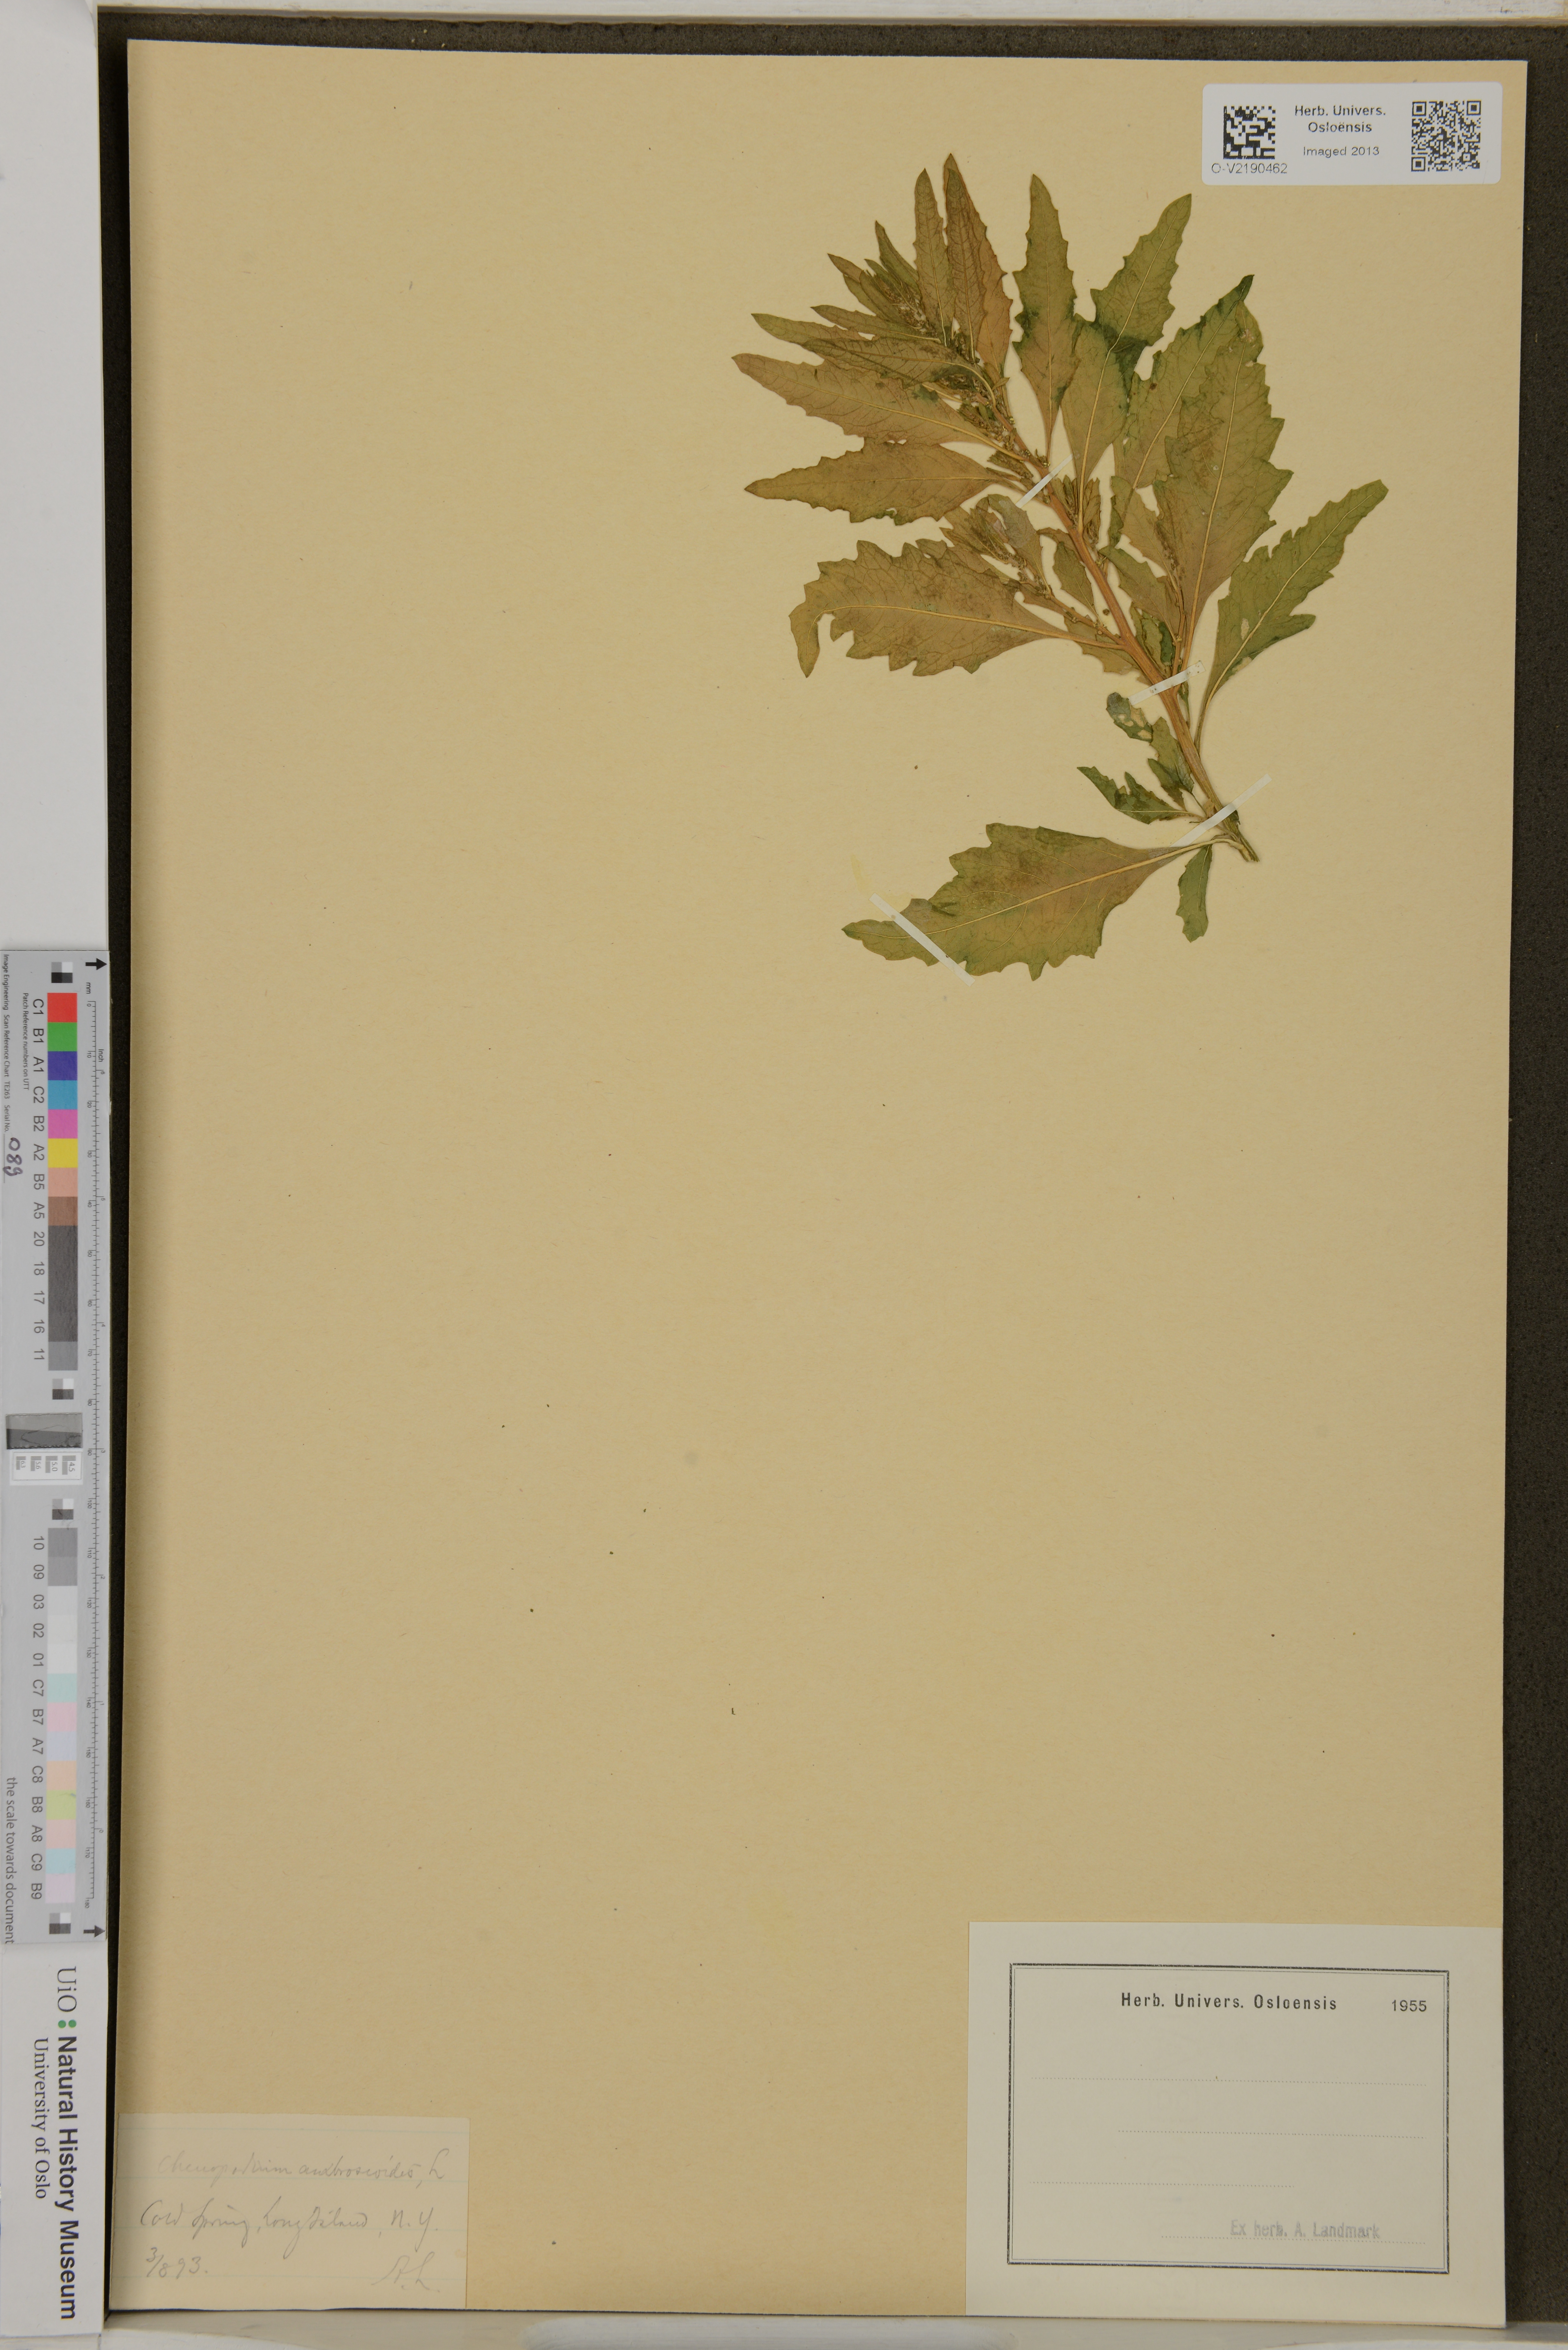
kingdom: Plantae
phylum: Tracheophyta
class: Magnoliopsida
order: Caryophyllales
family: Amaranthaceae
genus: Dysphania
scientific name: Dysphania ambrosioides
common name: Wormseed
